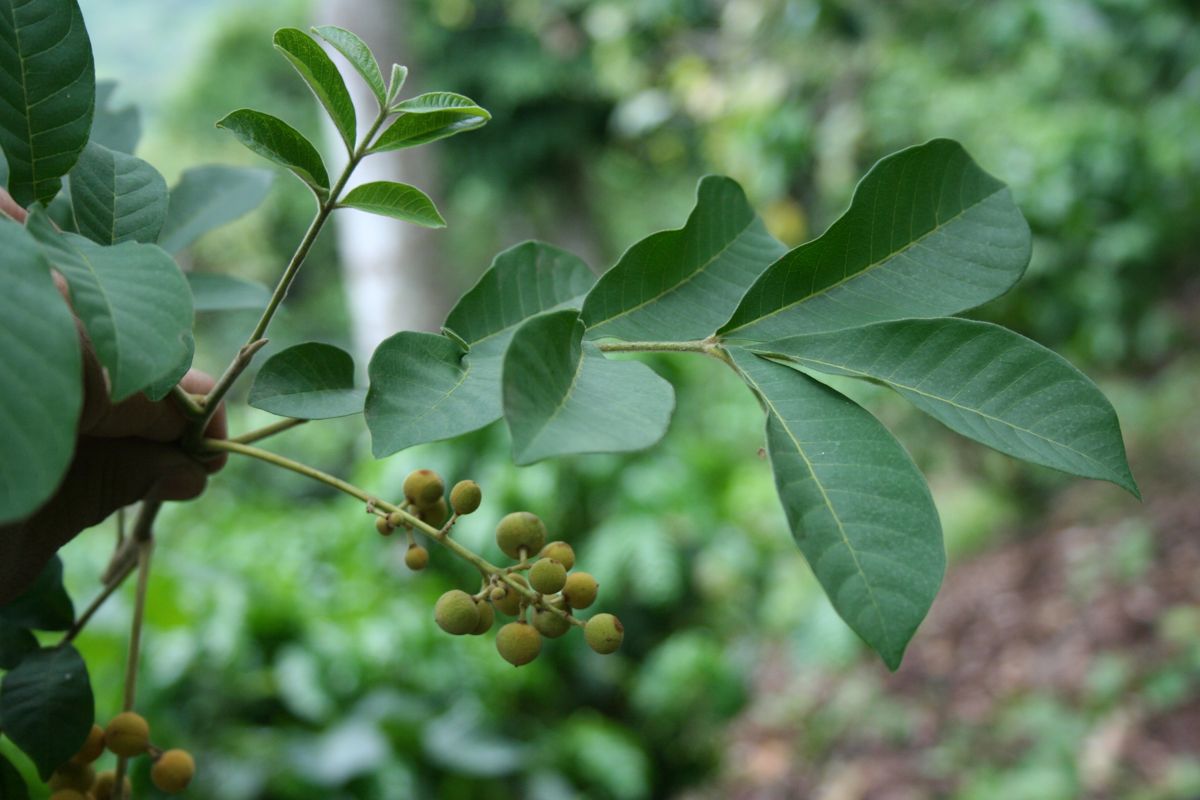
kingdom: Plantae
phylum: Tracheophyta
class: Magnoliopsida
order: Sapindales
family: Meliaceae
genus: Trichilia
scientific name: Trichilia martiana
